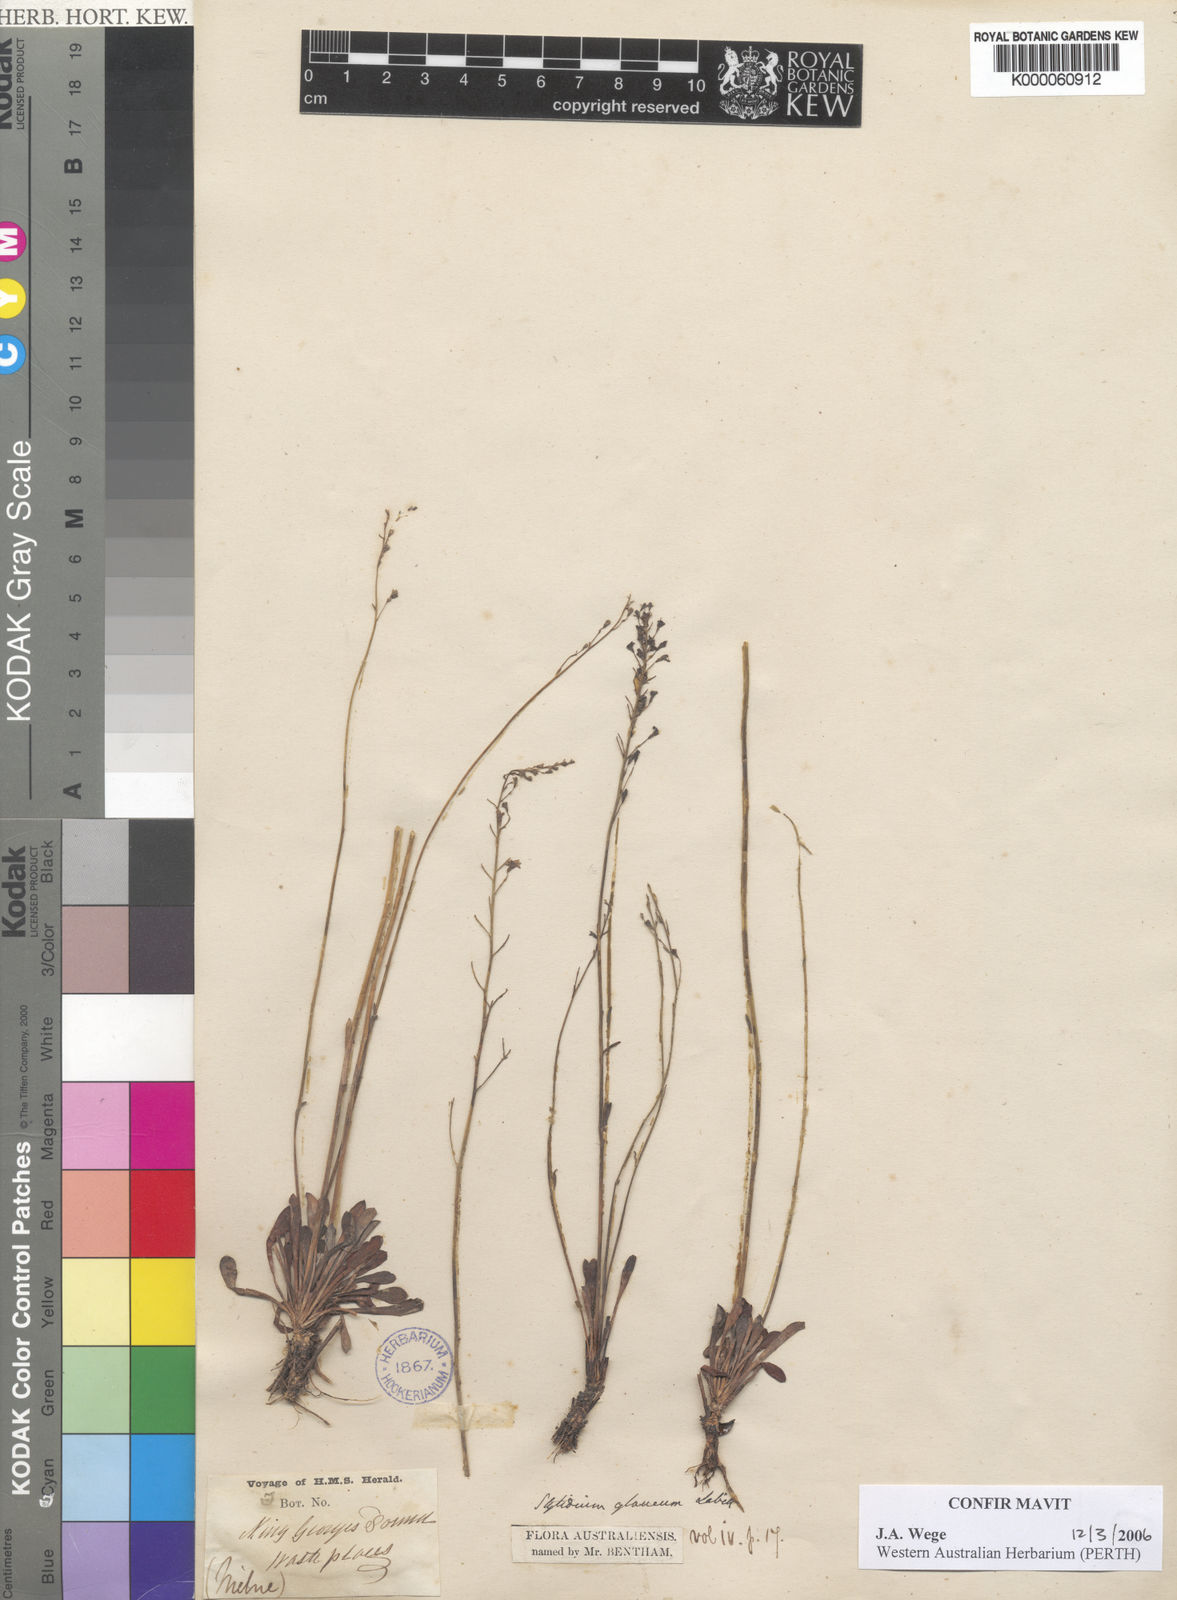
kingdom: Plantae
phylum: Tracheophyta
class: Magnoliopsida
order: Asterales
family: Stylidiaceae
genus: Stylidium
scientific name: Stylidium glaucum
